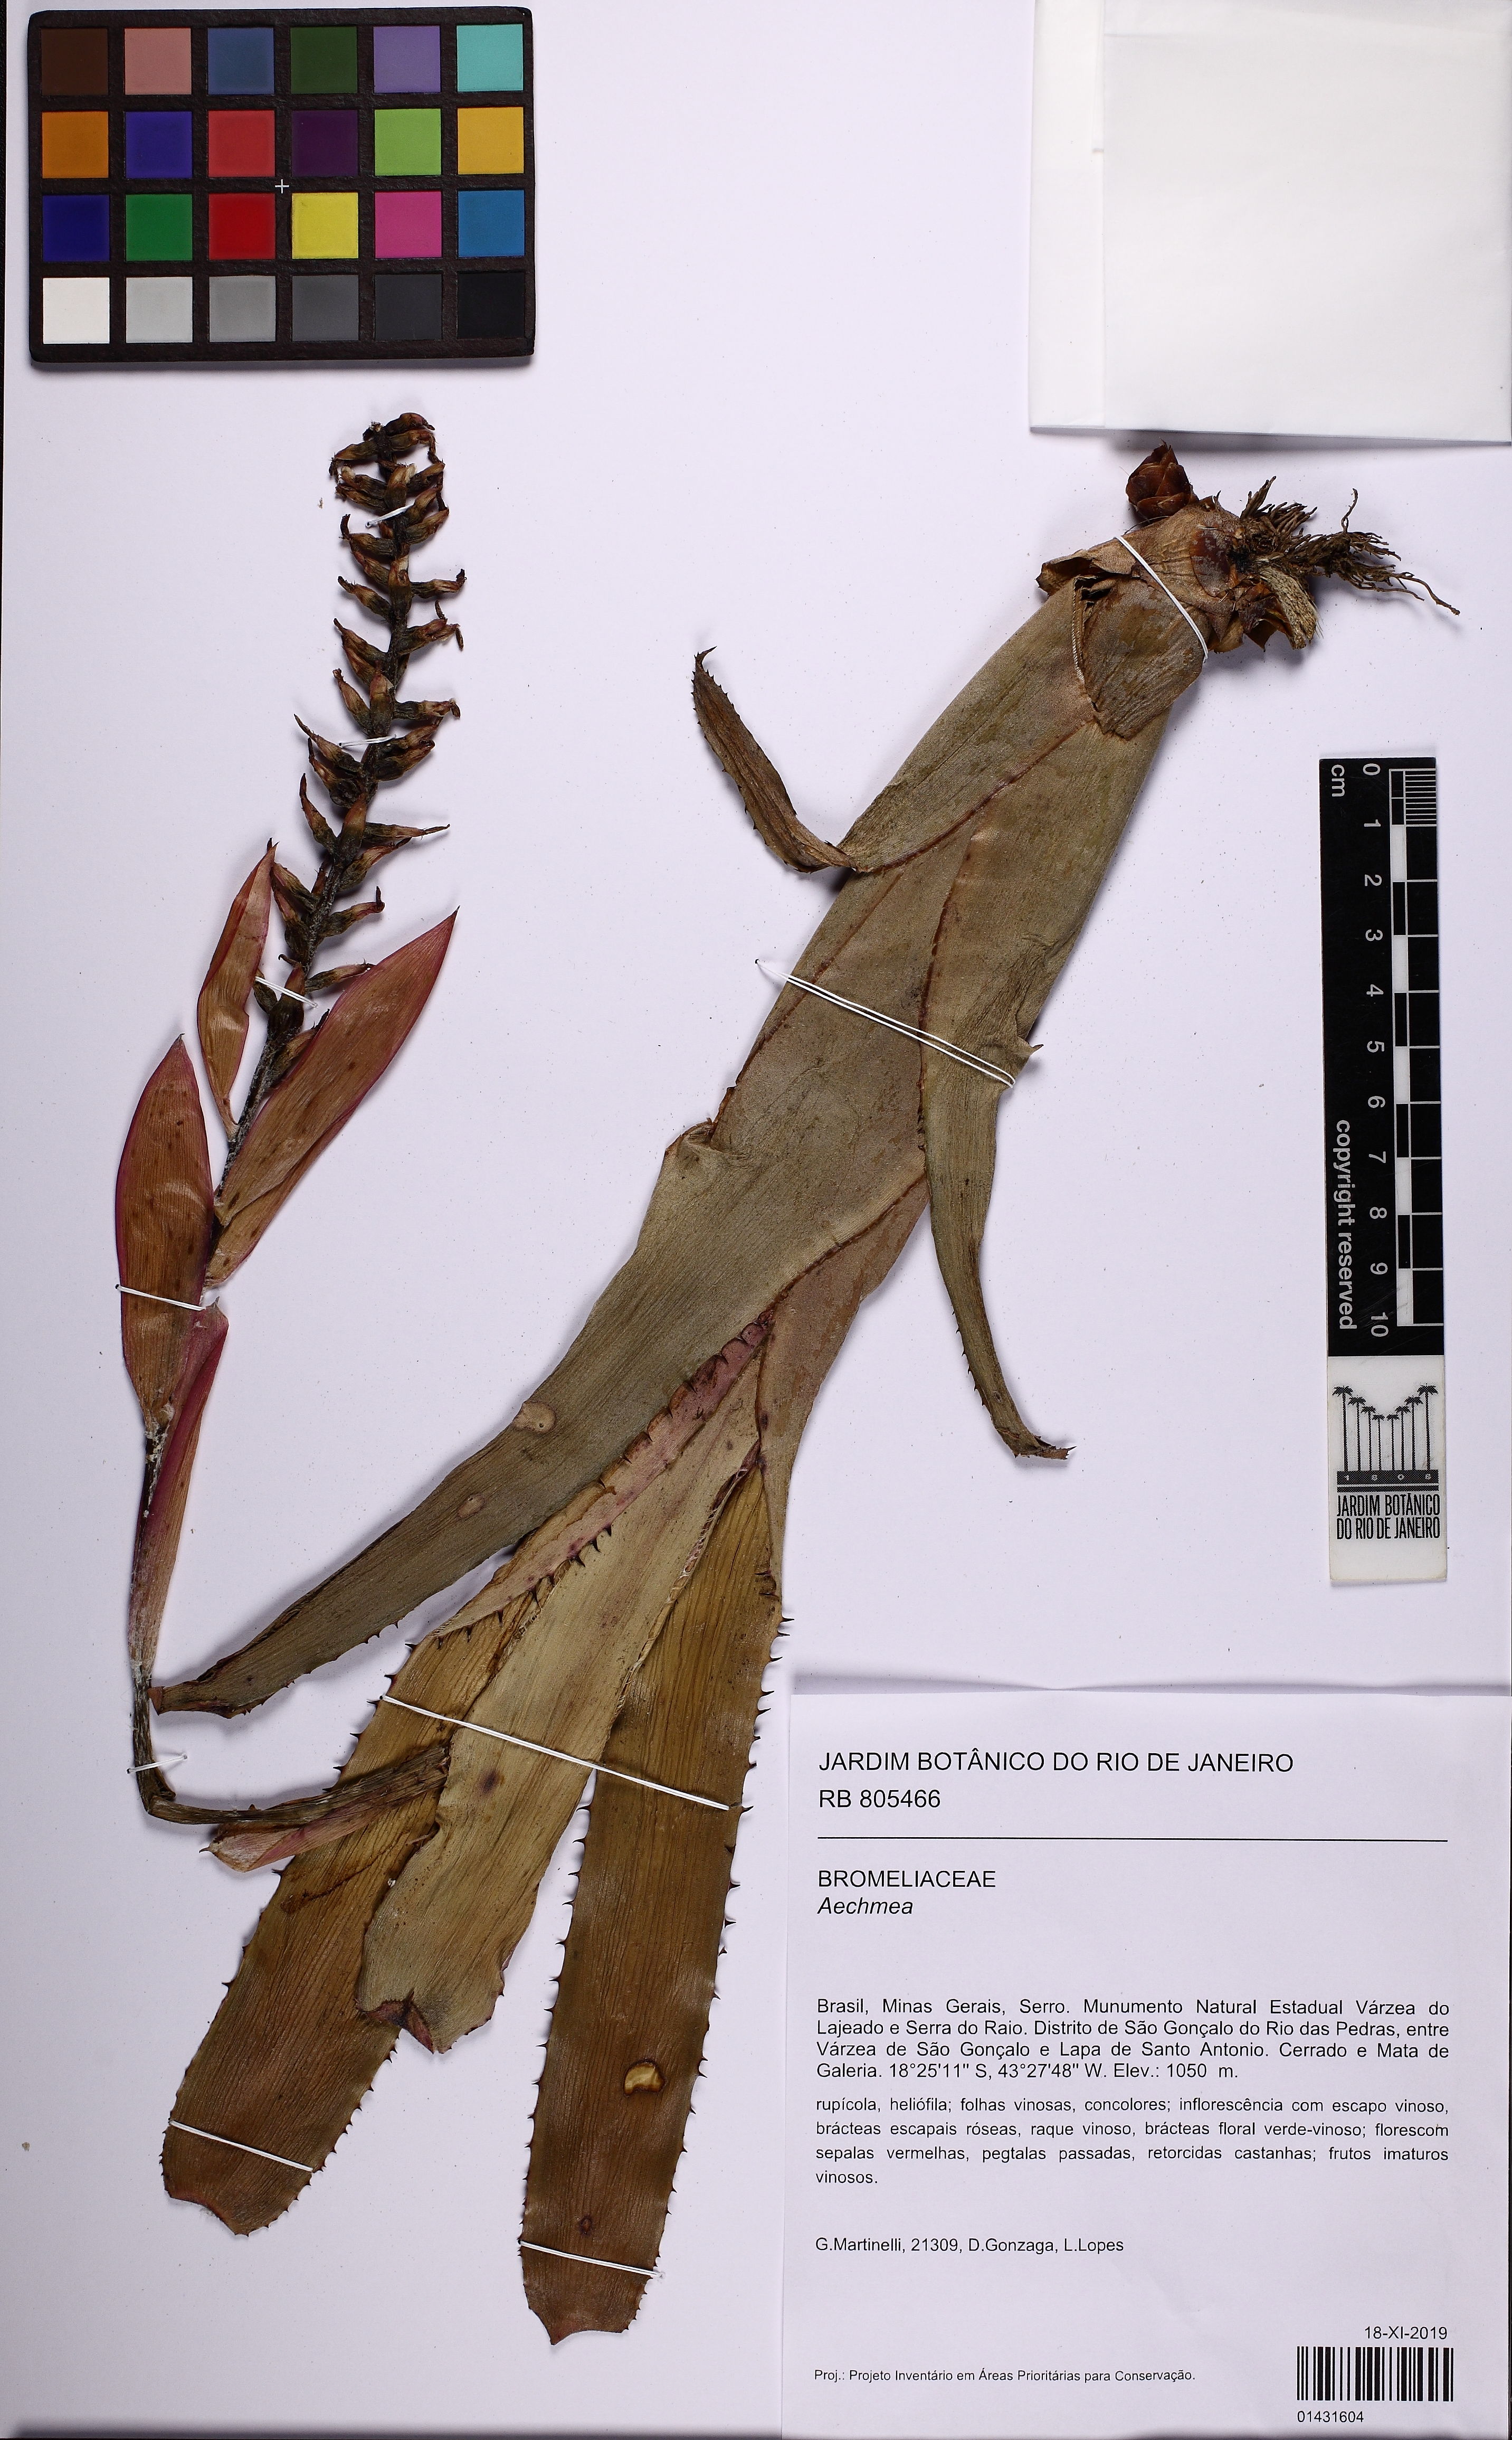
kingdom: Plantae
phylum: Tracheophyta
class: Liliopsida
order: Poales
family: Bromeliaceae
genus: Aechmea
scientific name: Aechmea
